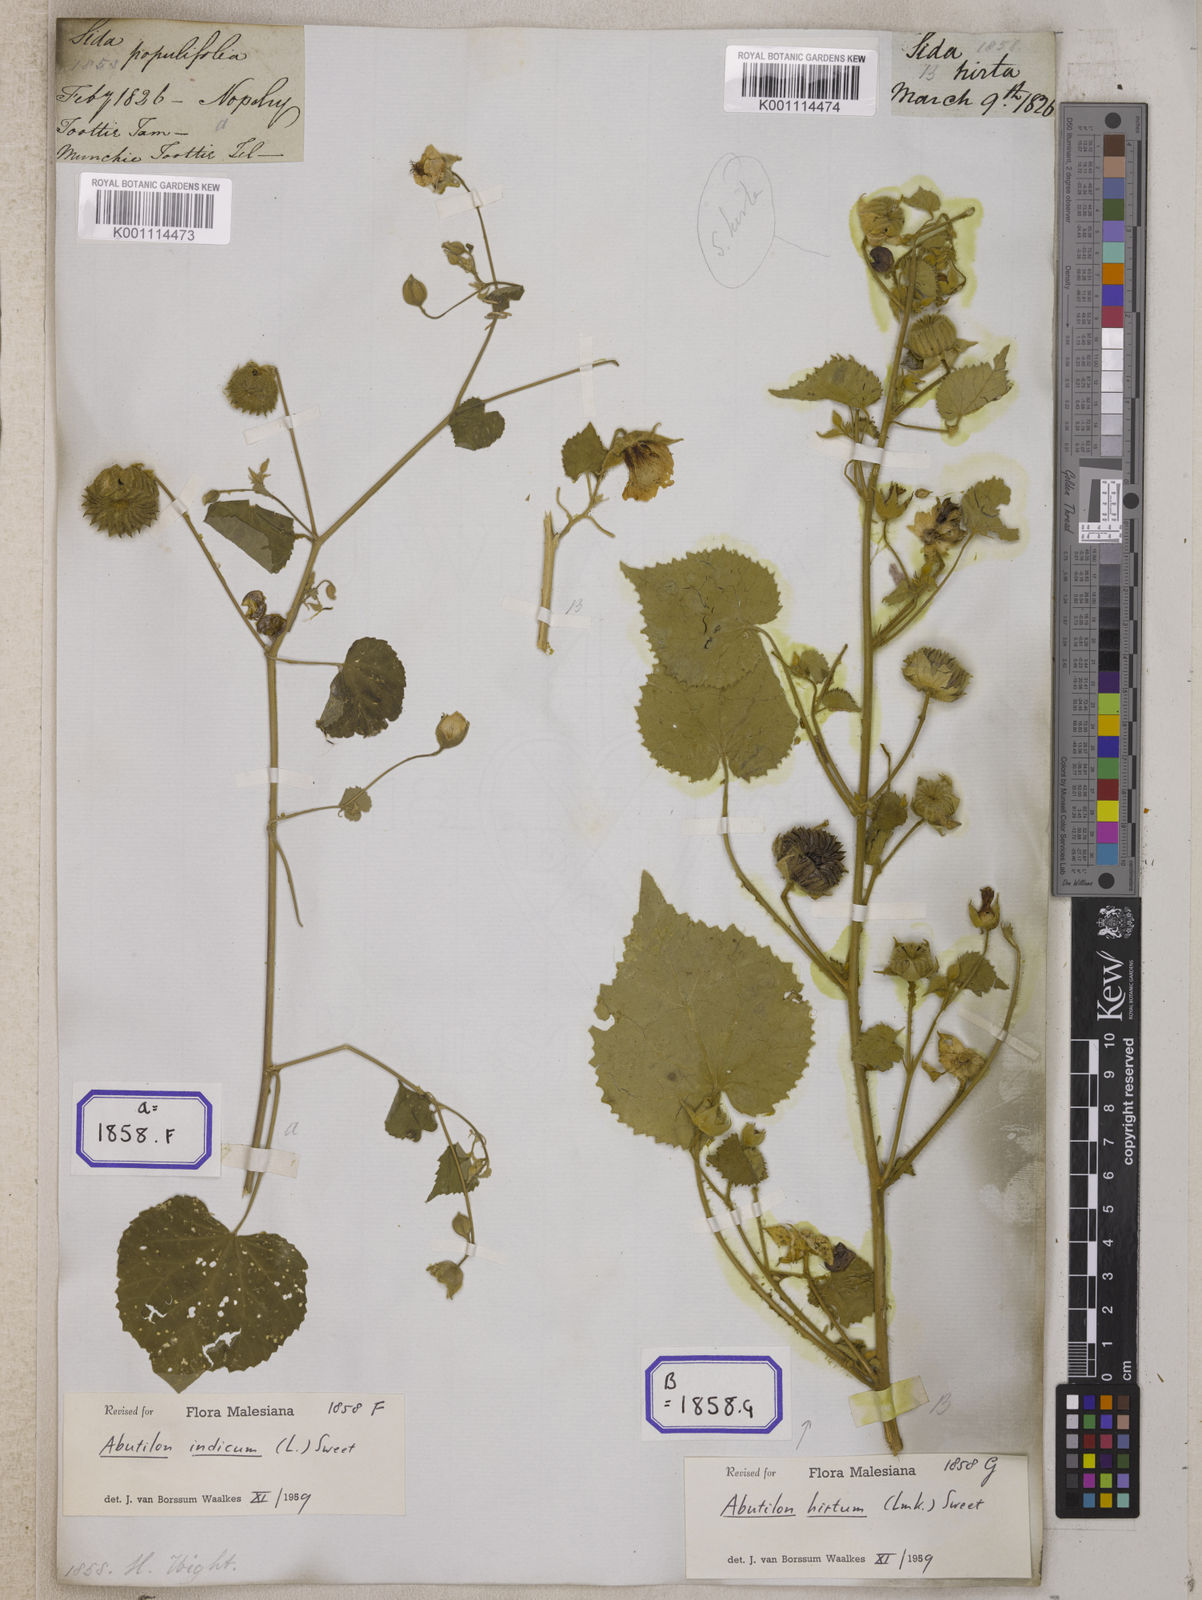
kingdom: Plantae
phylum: Tracheophyta
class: Magnoliopsida
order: Malvales
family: Malvaceae
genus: Abutilon
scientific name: Abutilon indicum
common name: Indian abutilon
